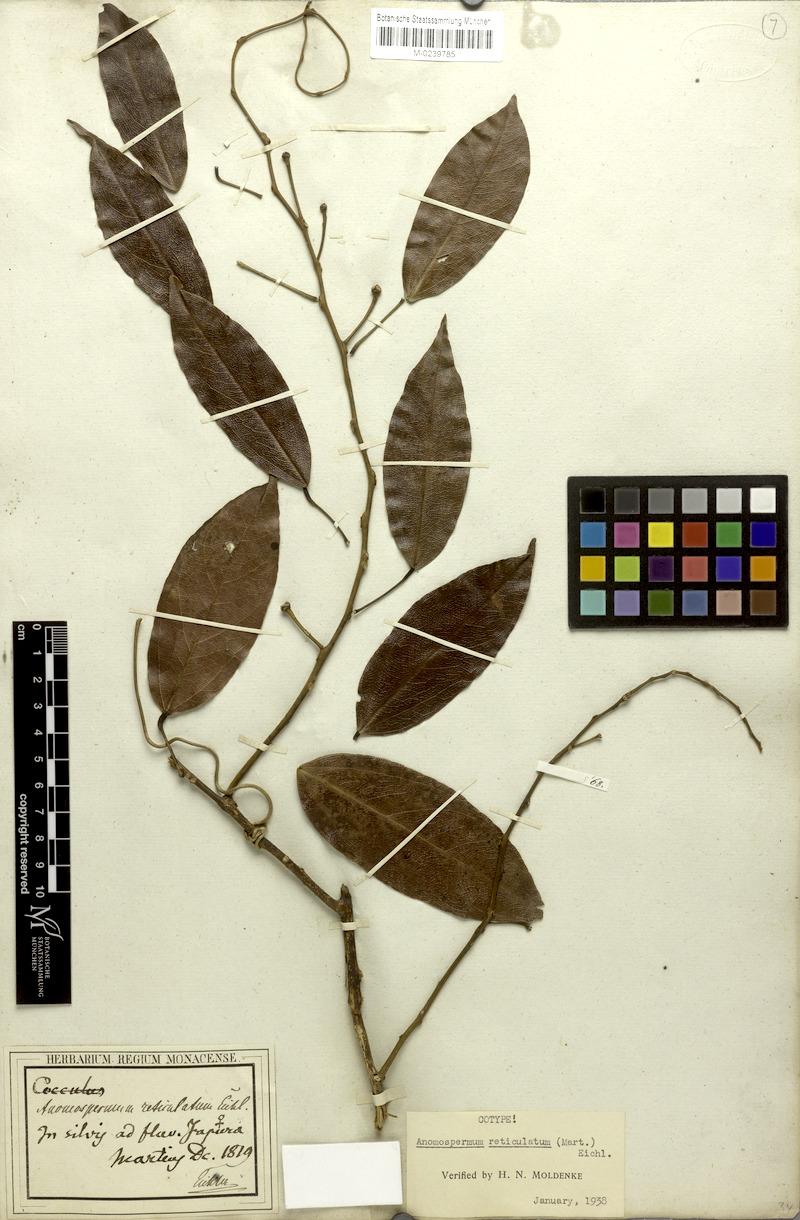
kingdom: Plantae
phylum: Tracheophyta
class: Magnoliopsida
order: Ranunculales
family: Menispermaceae
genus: Anomospermum
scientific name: Anomospermum reticulatum
